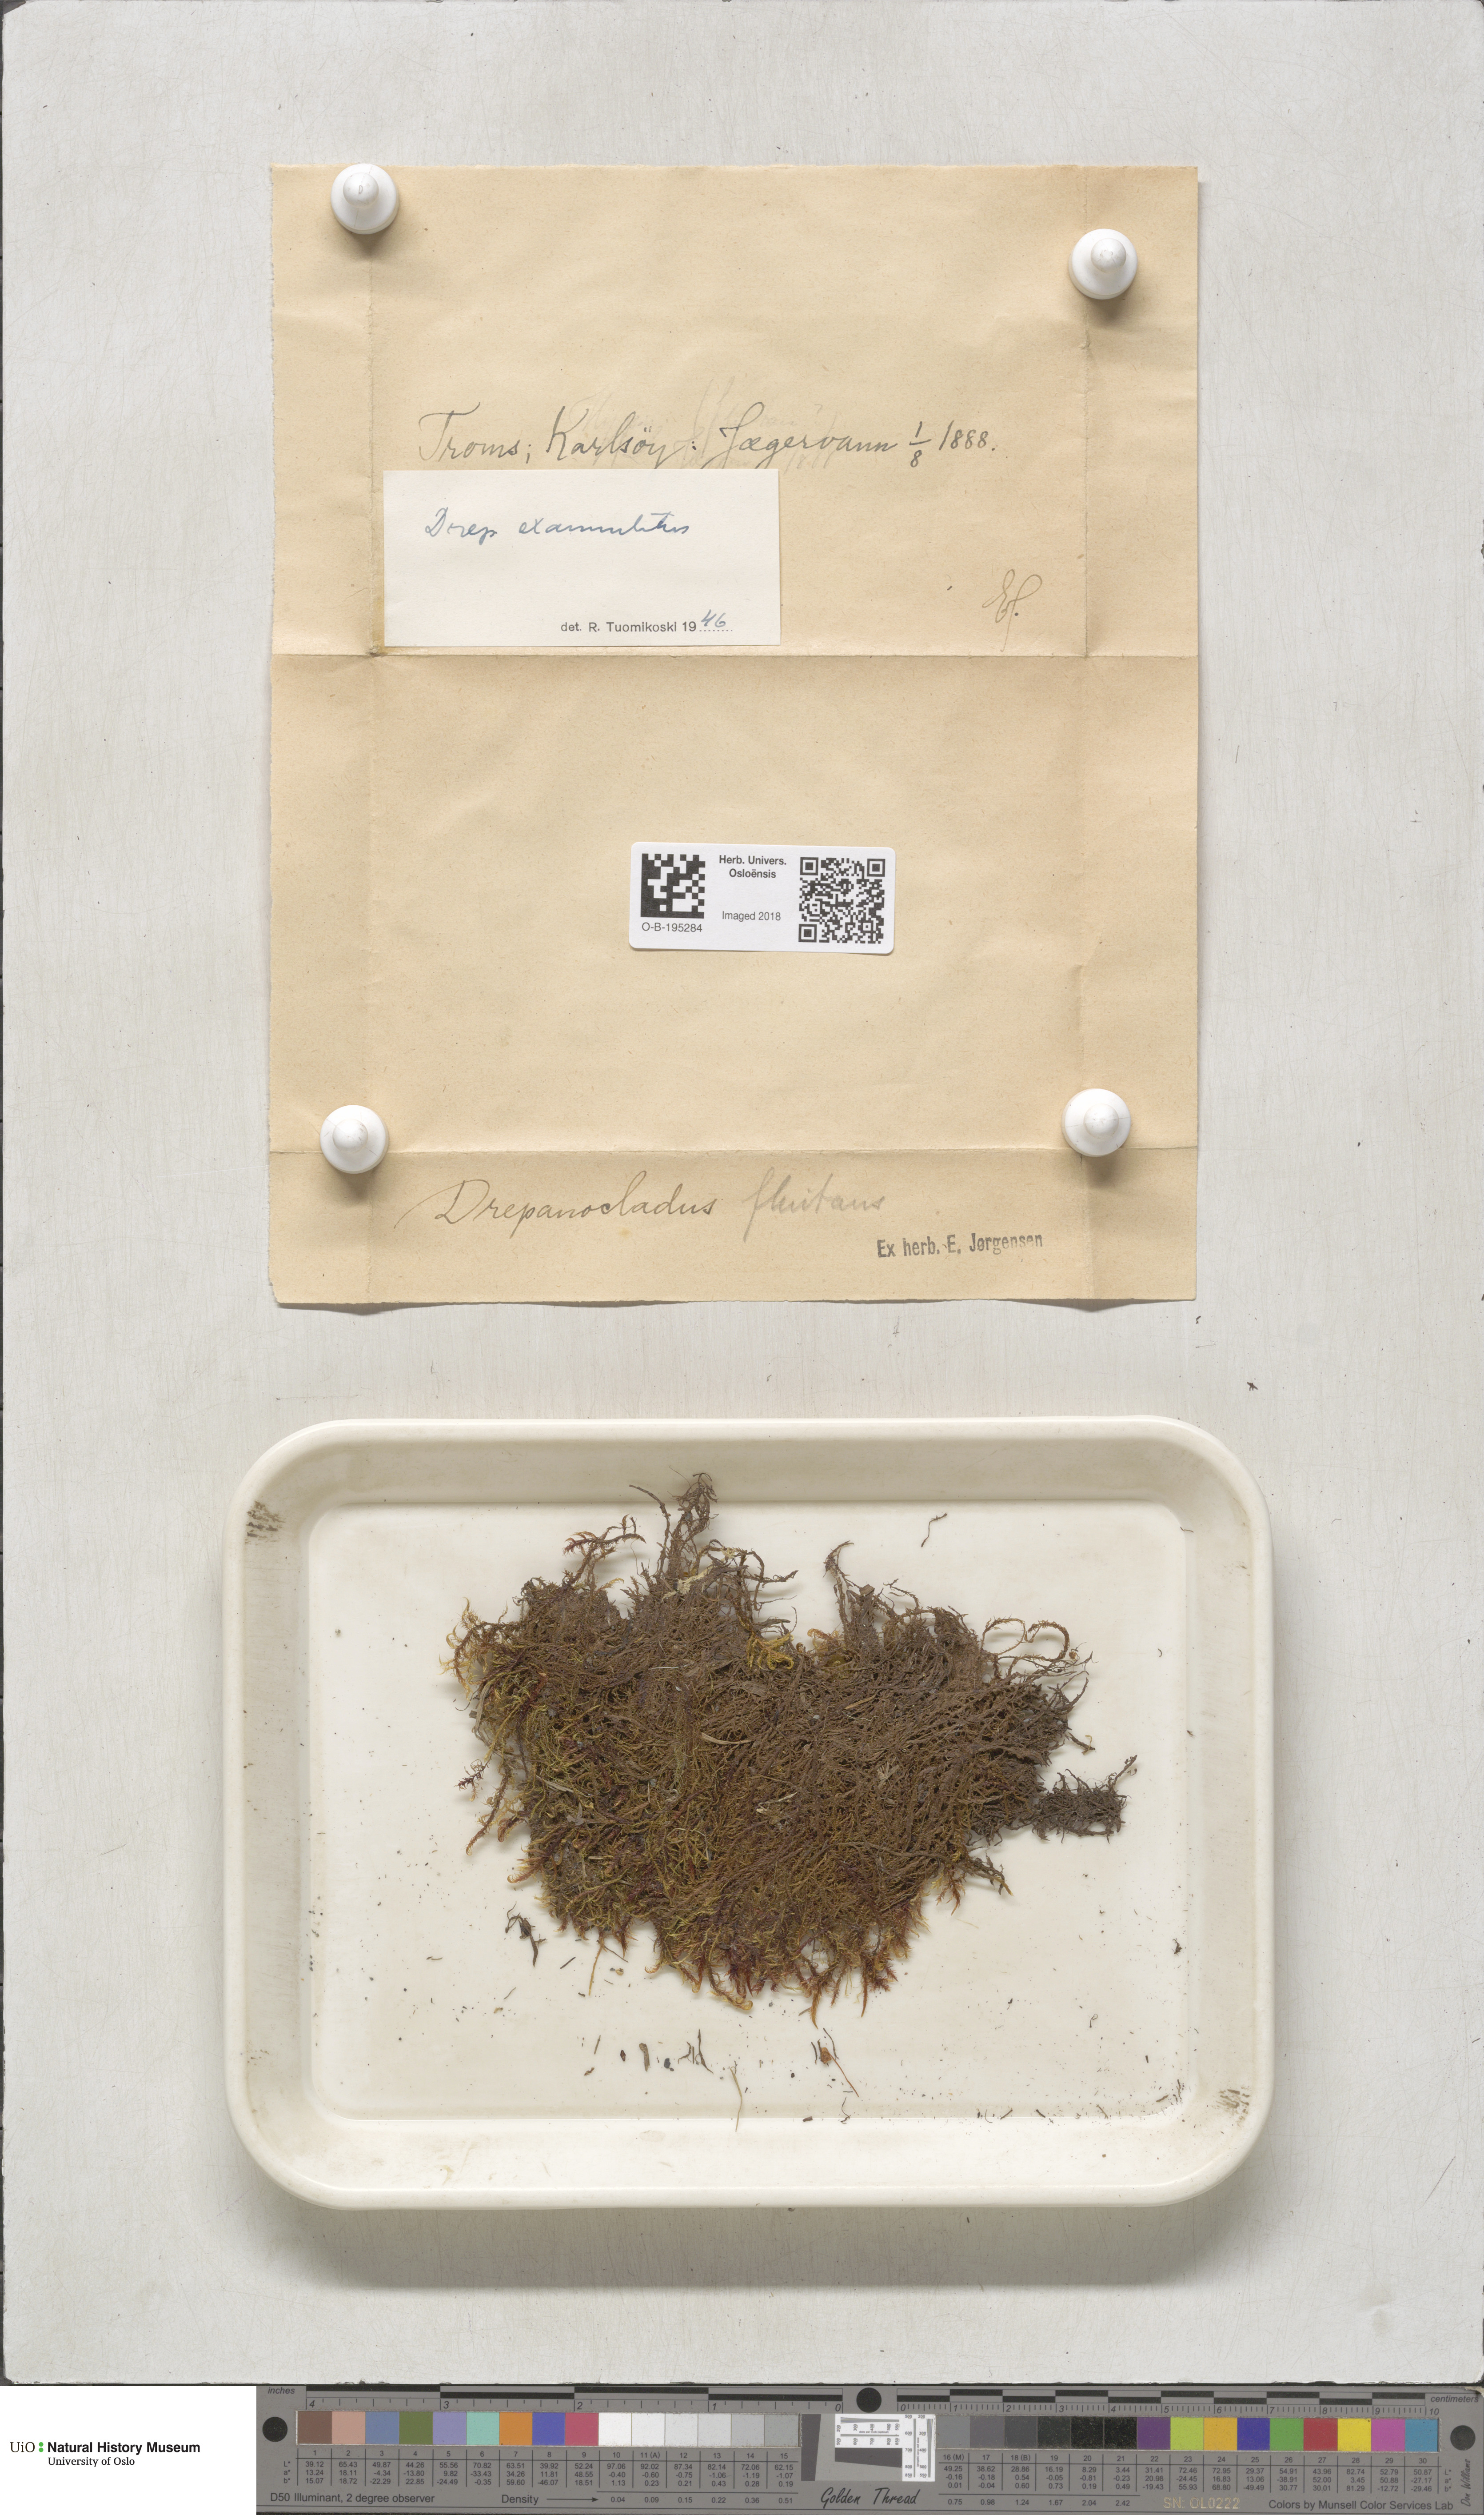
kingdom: Plantae
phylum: Bryophyta
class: Bryopsida
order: Hypnales
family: Calliergonaceae
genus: Sarmentypnum
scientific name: Sarmentypnum exannulatum
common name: Ringless spoon moss
